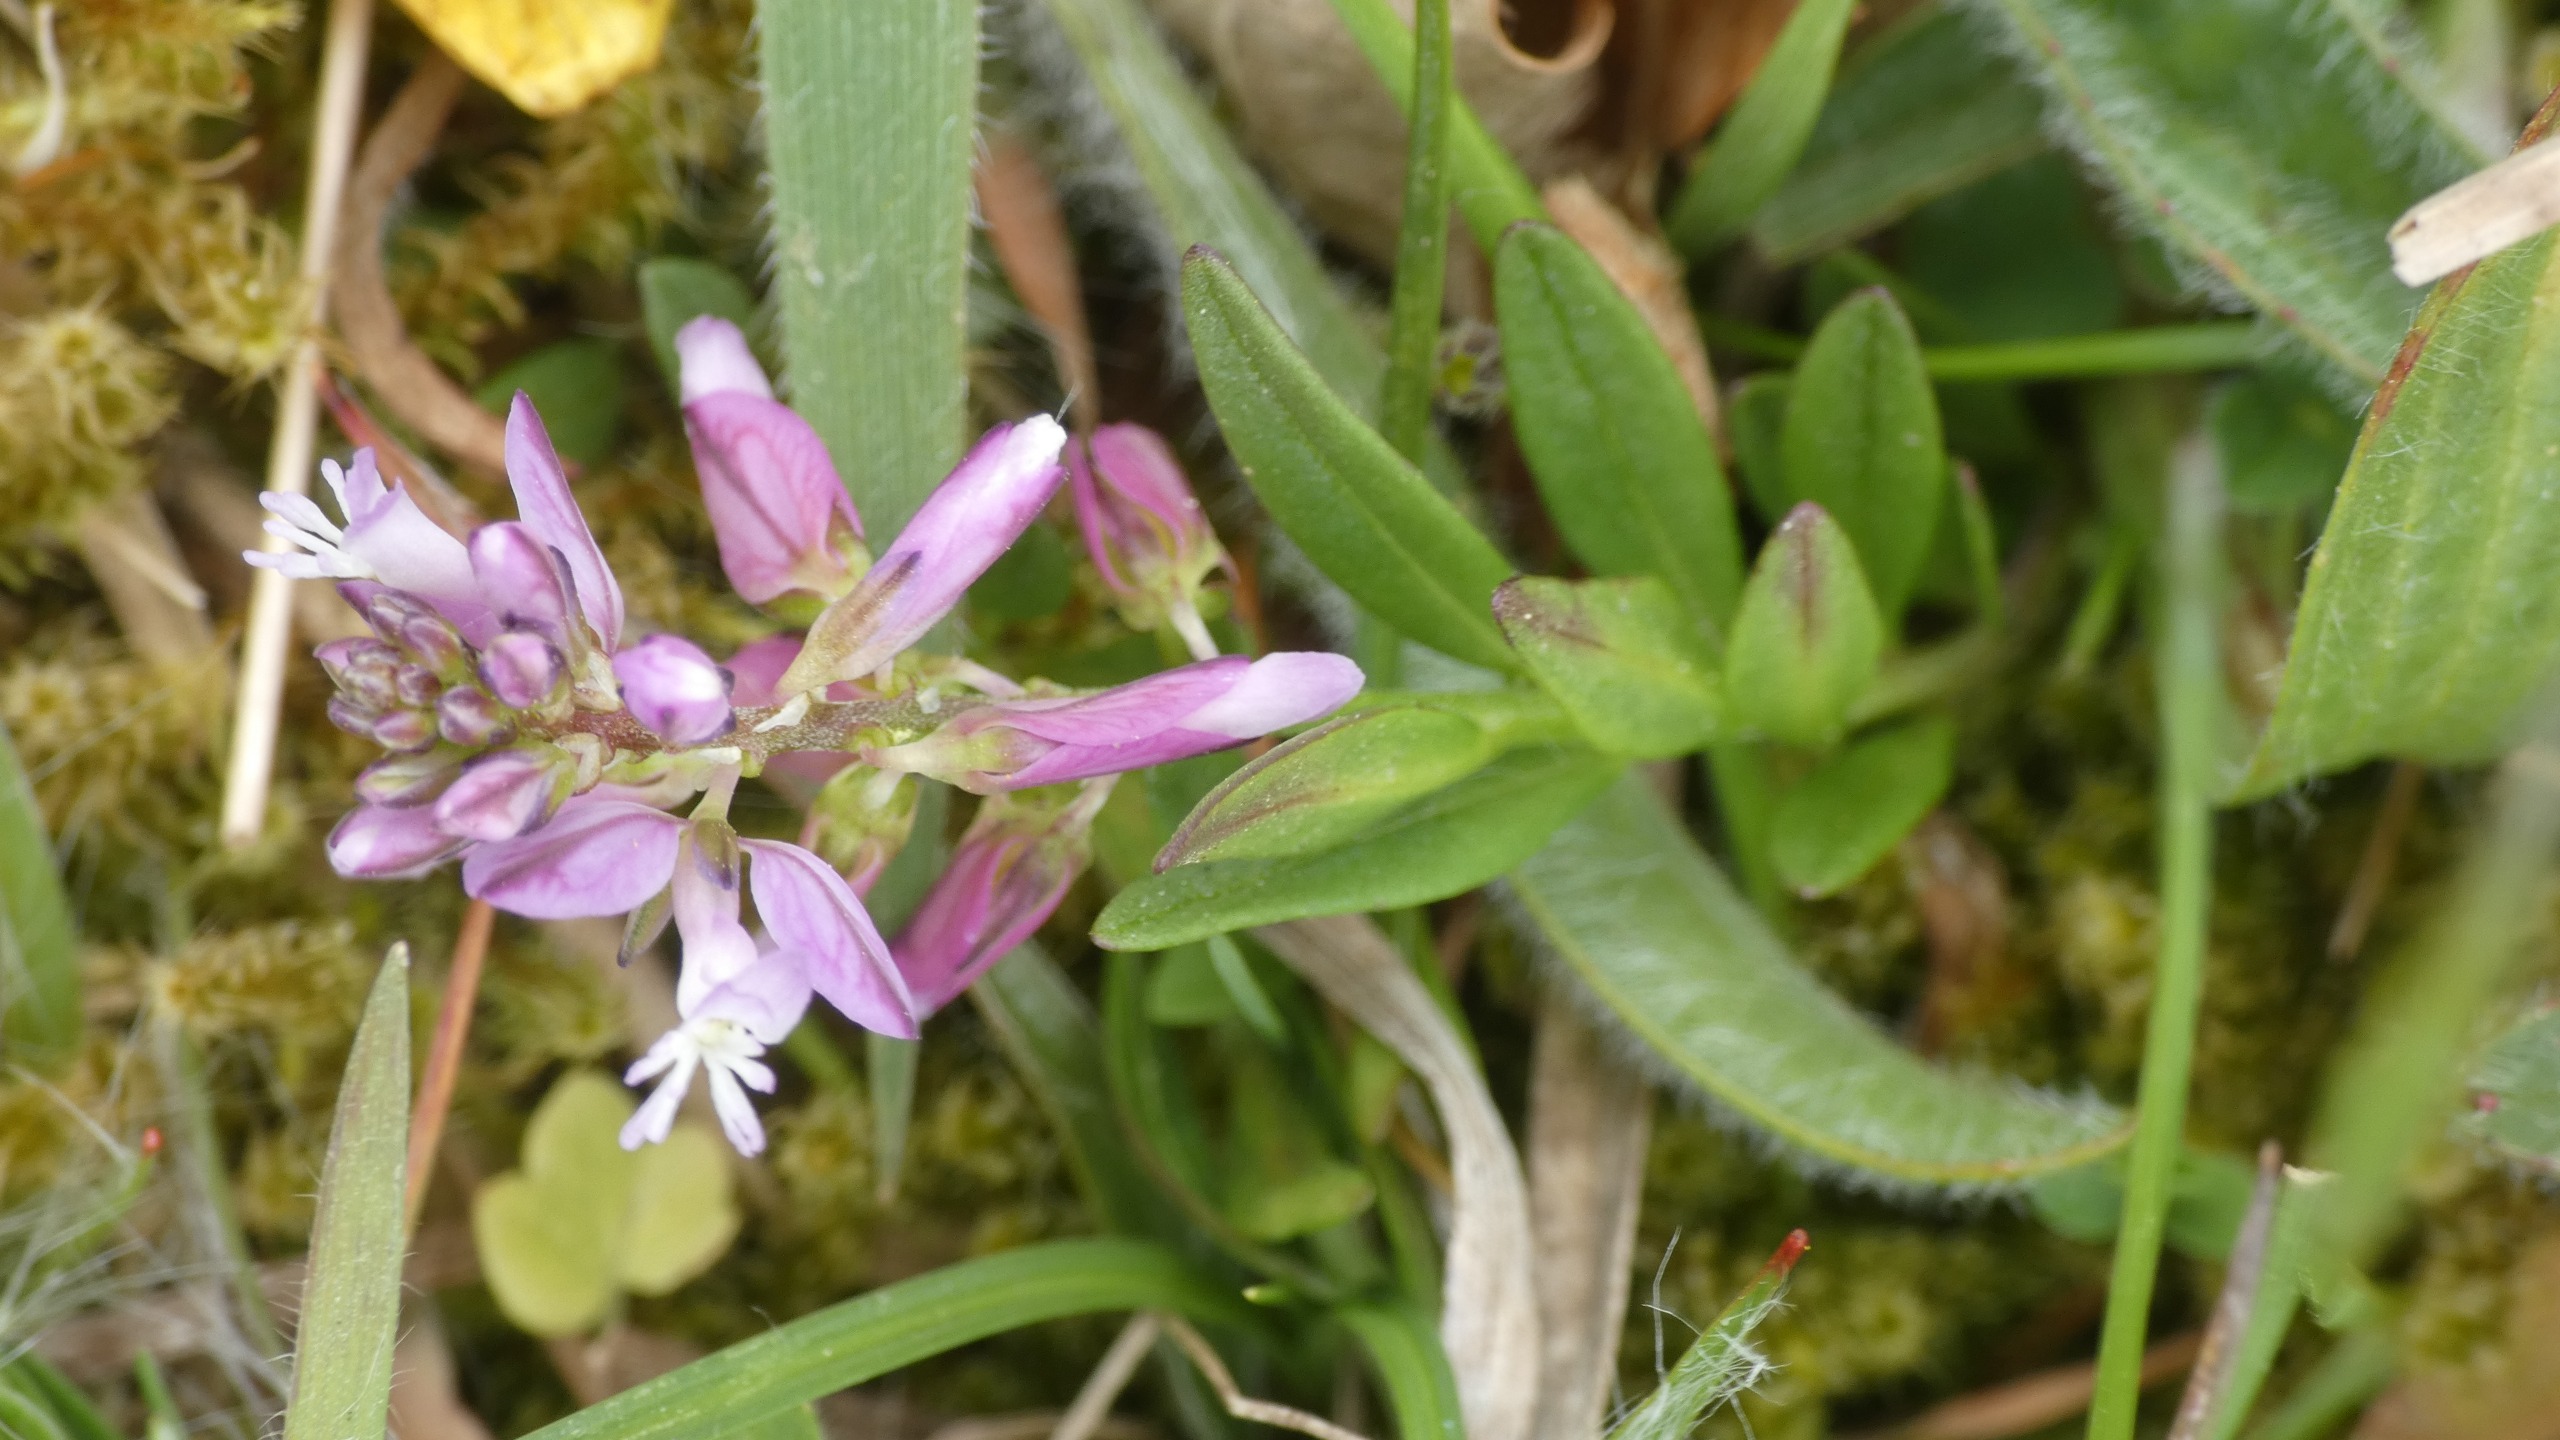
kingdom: Plantae
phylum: Tracheophyta
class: Magnoliopsida
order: Fabales
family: Polygalaceae
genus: Polygala
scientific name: Polygala vulgaris
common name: Almindelig mælkeurt
